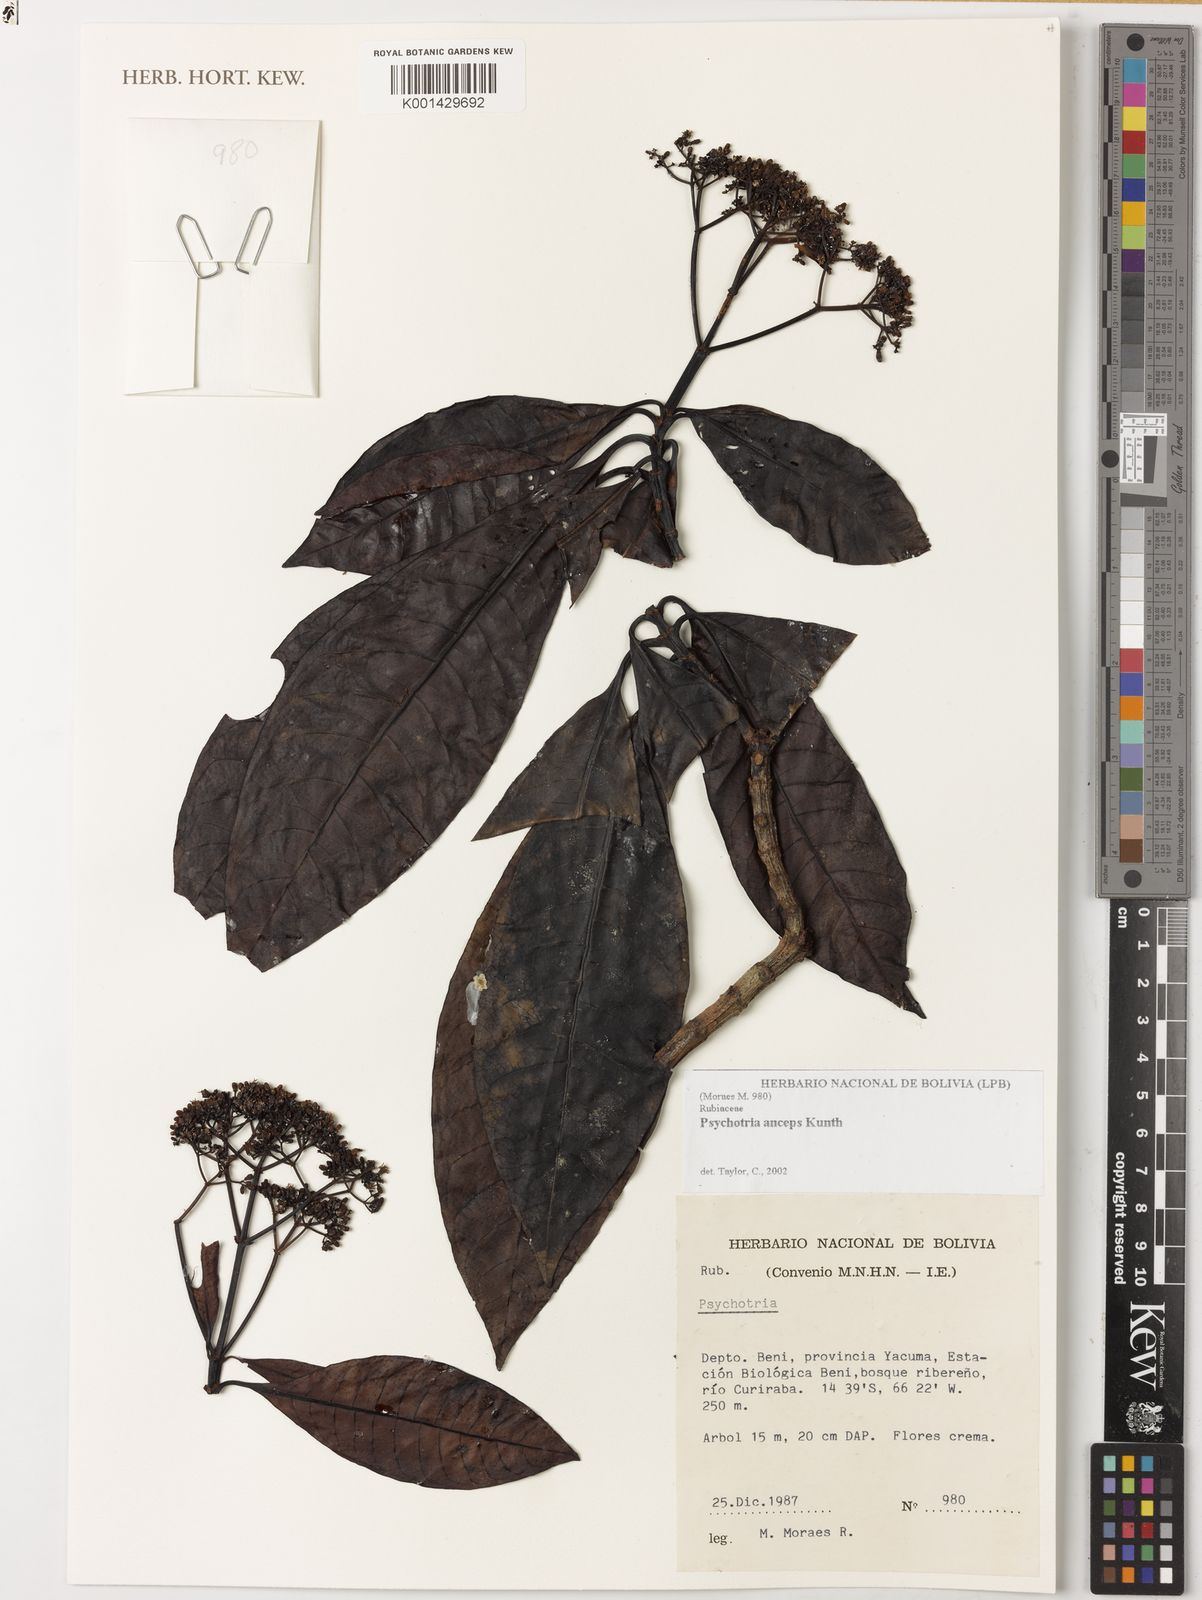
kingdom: Plantae
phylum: Tracheophyta
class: Magnoliopsida
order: Gentianales
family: Rubiaceae
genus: Psychotria
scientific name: Psychotria anceps
